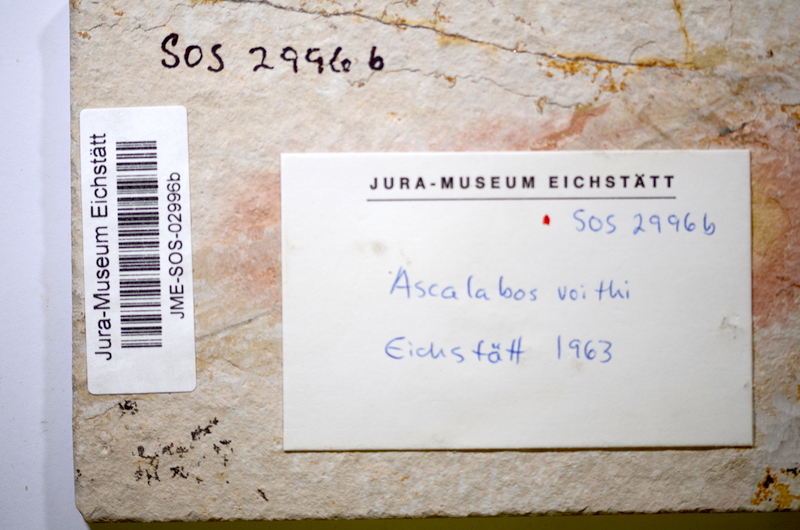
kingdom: Animalia
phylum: Chordata
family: Ascalaboidae
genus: Ascalabos
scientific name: Ascalabos voithii
